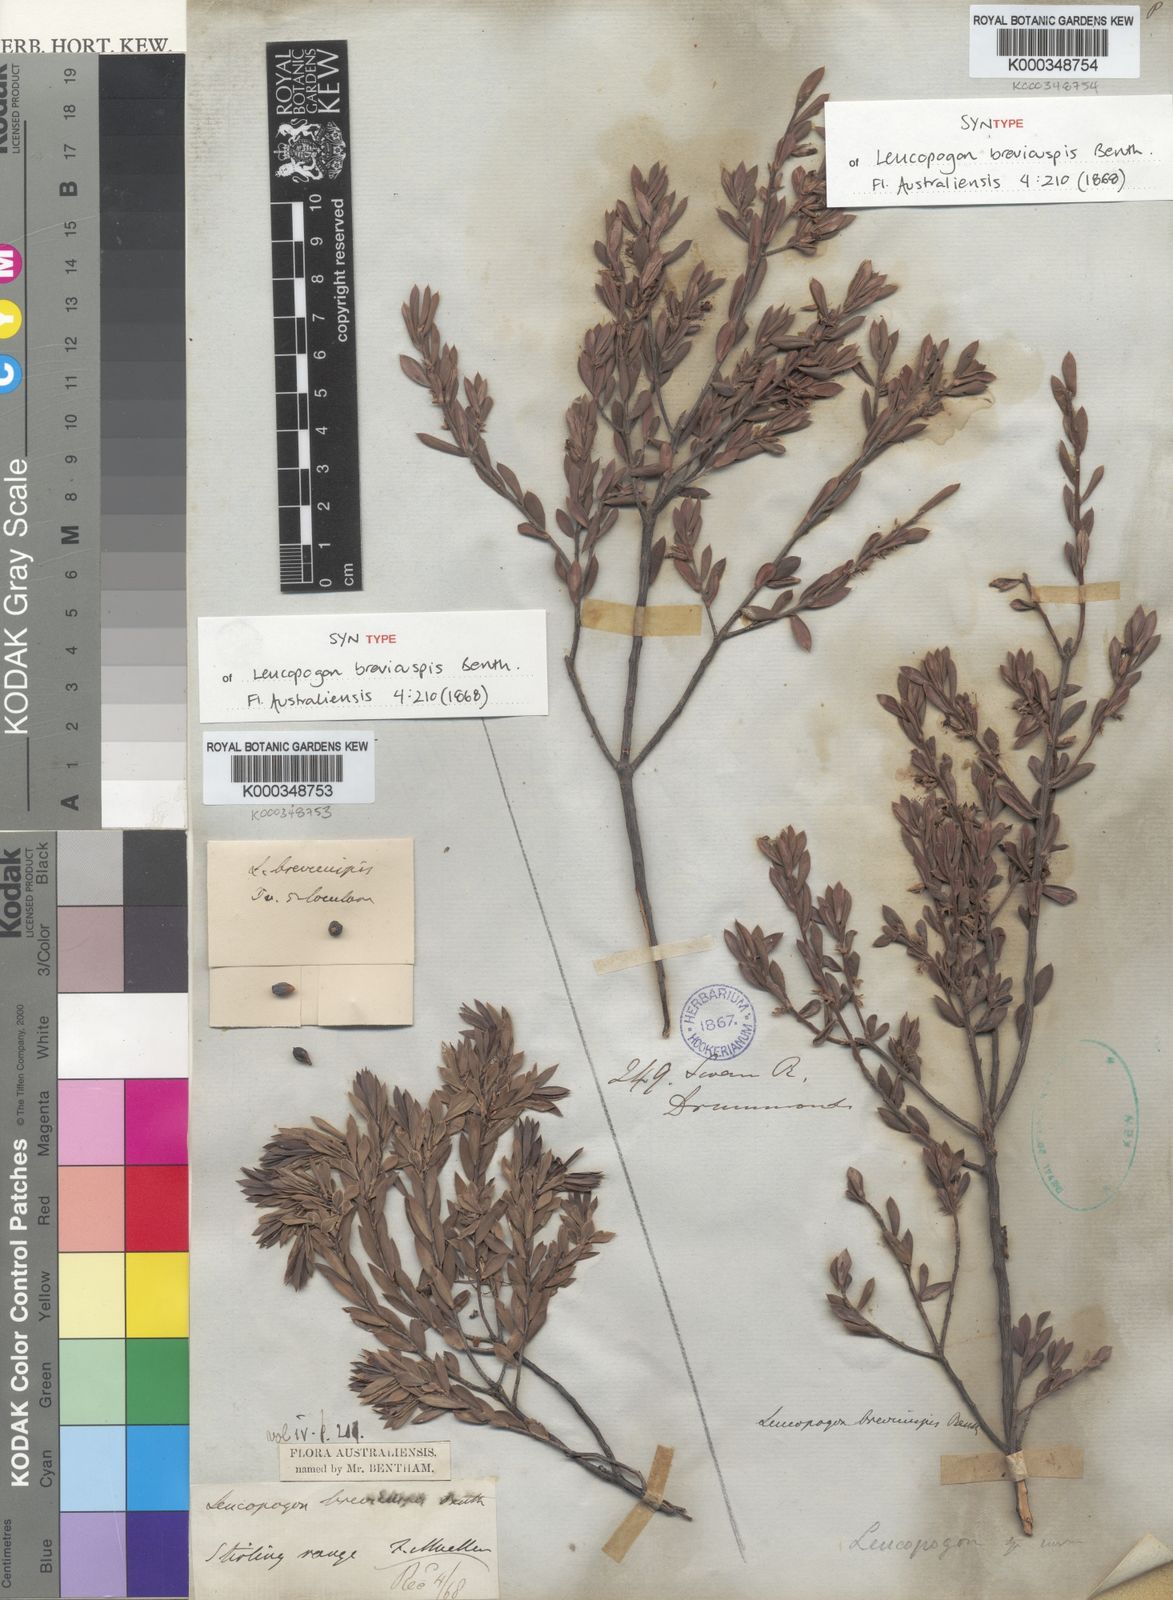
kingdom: Plantae
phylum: Tracheophyta
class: Magnoliopsida
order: Ericales
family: Ericaceae
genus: Styphelia
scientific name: Styphelia brevicuspis
